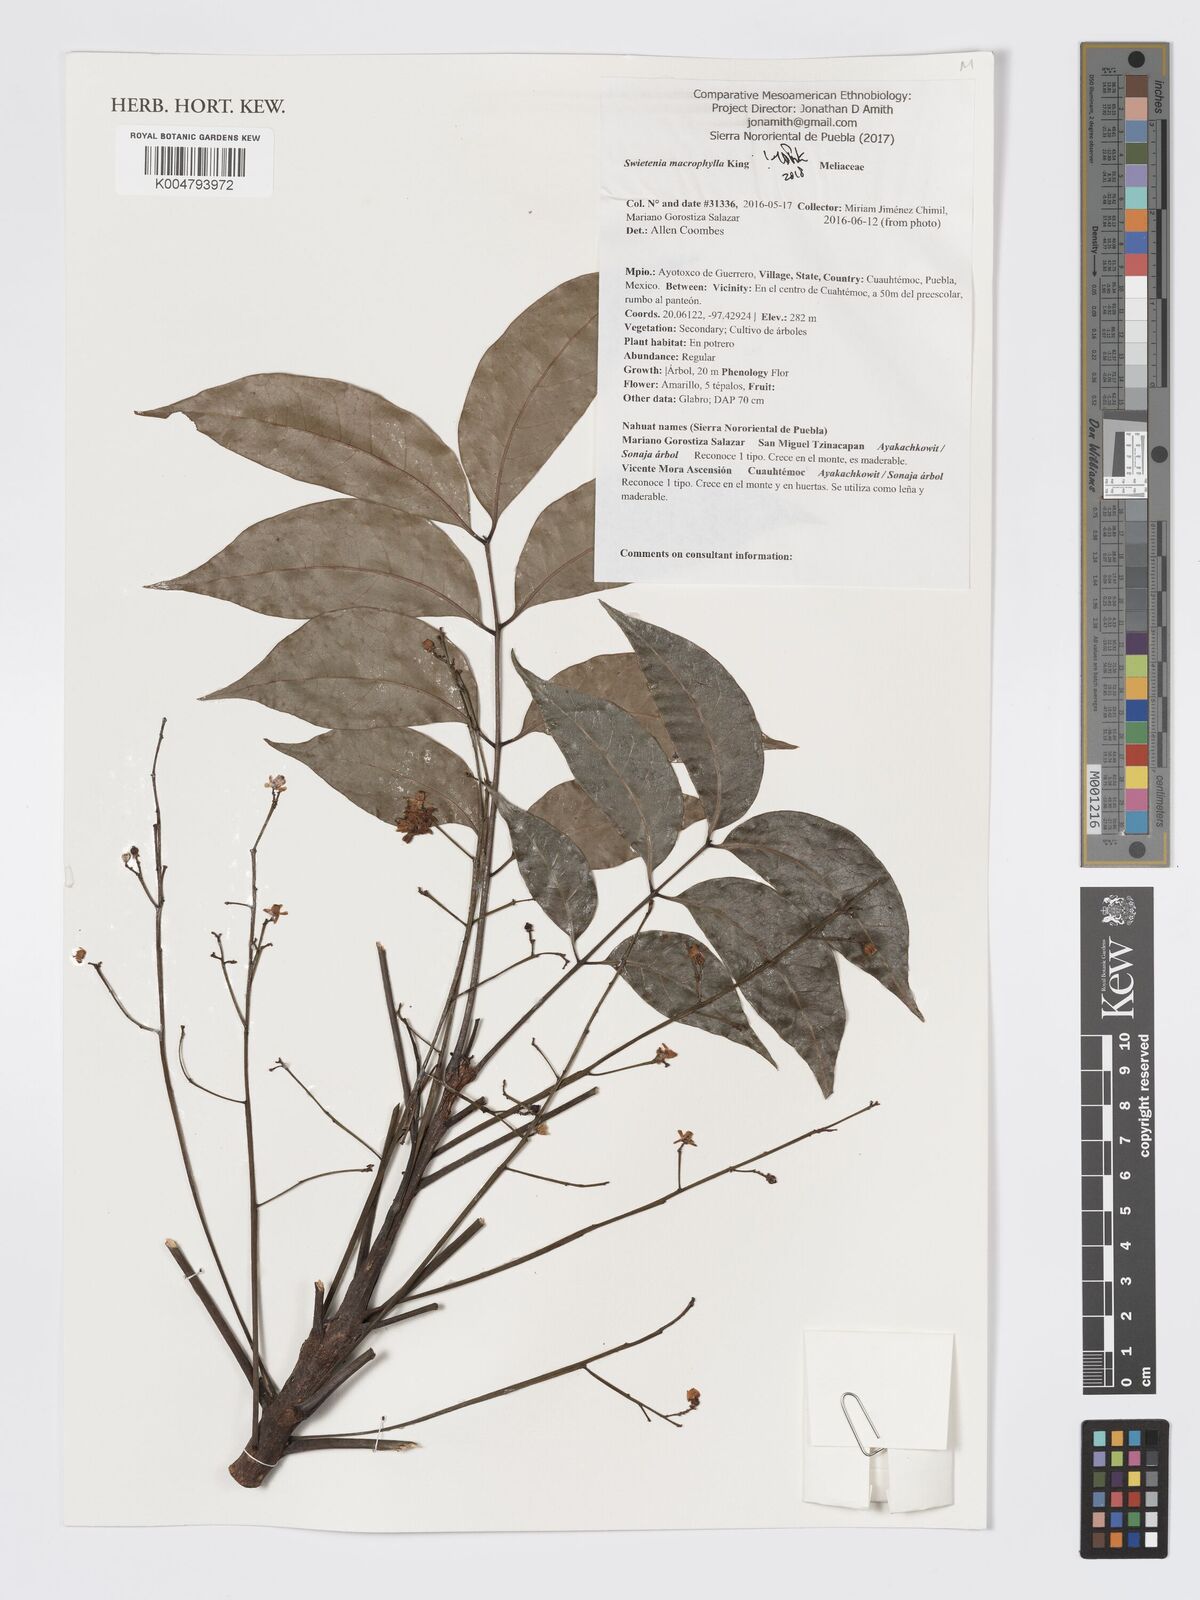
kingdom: Plantae
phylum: Tracheophyta
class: Magnoliopsida
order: Sapindales
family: Meliaceae
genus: Swietenia
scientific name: Swietenia macrophylla
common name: Honduras mahogany
